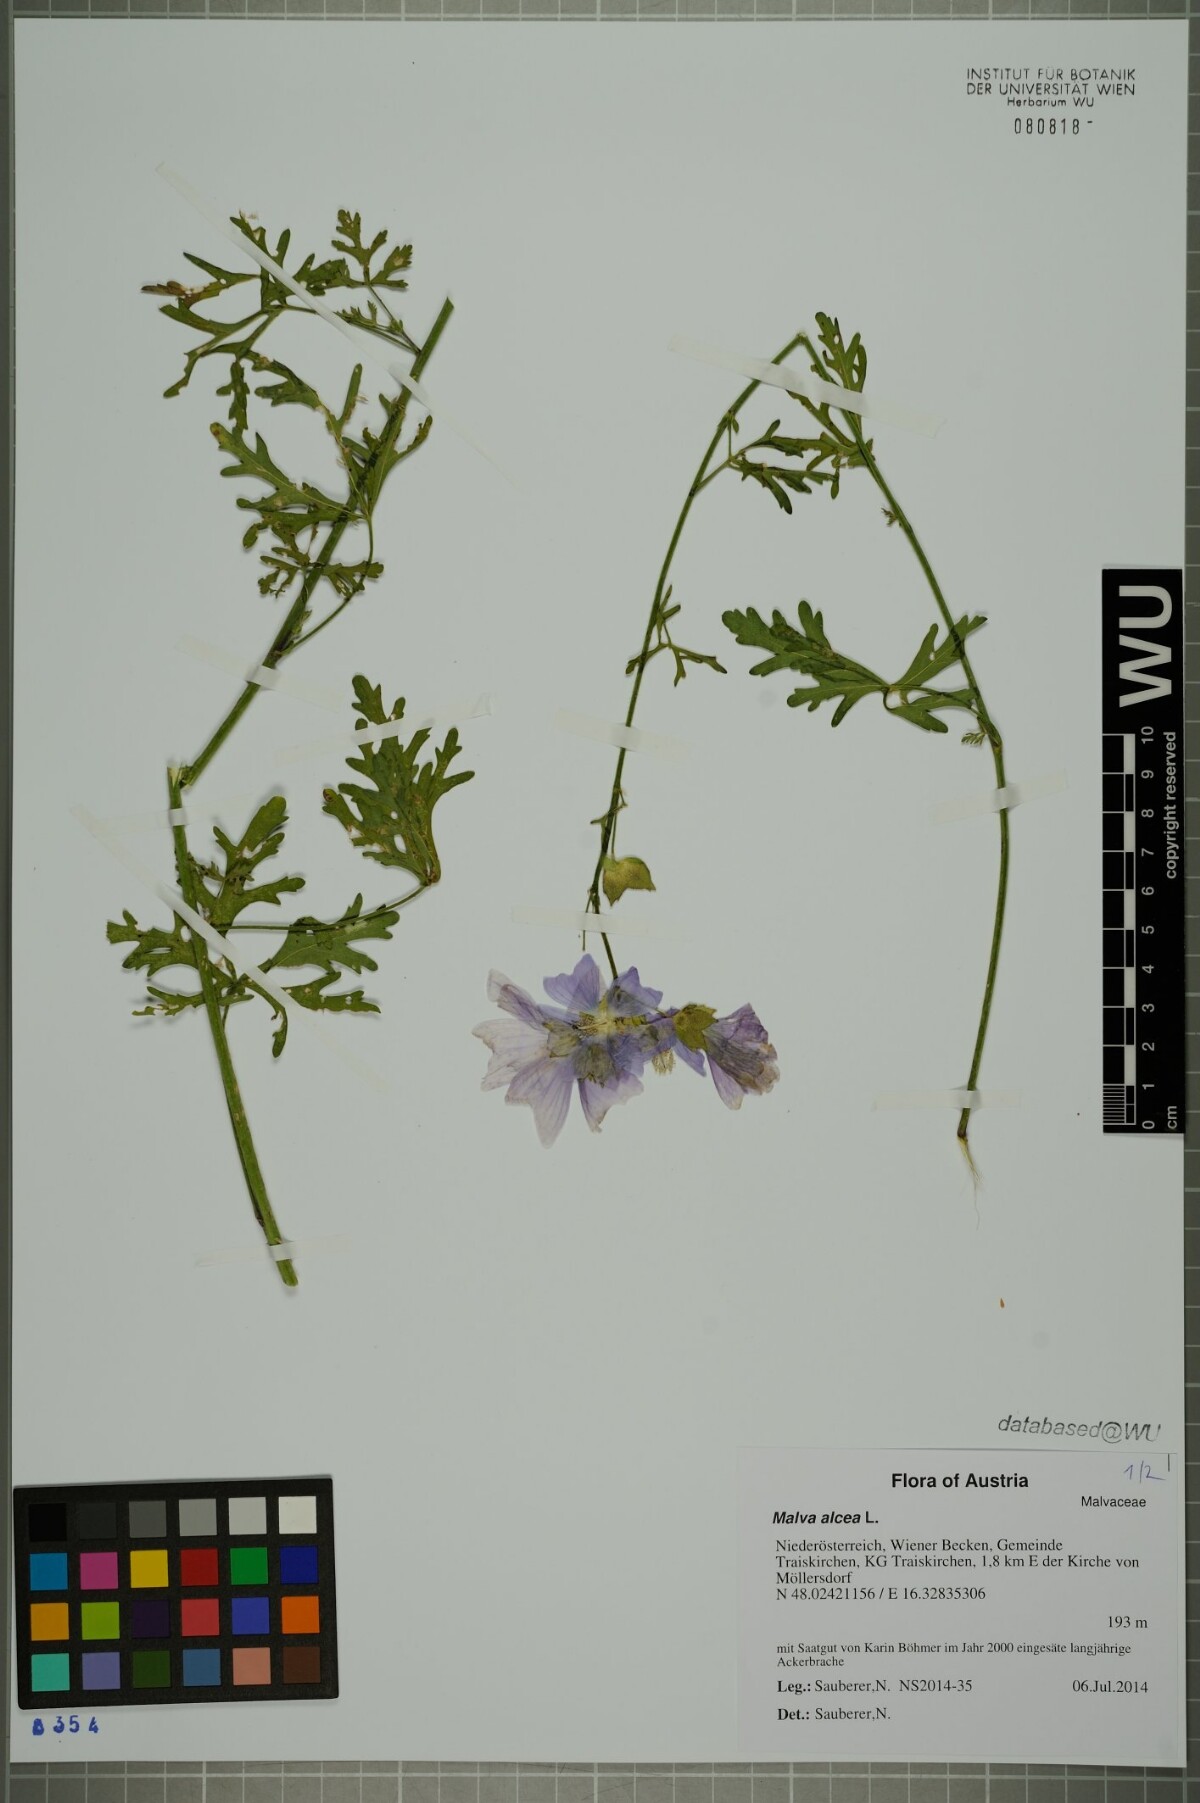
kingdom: Plantae
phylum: Tracheophyta
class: Magnoliopsida
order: Malvales
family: Malvaceae
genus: Malva
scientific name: Malva alcea
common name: Greater musk-mallow
